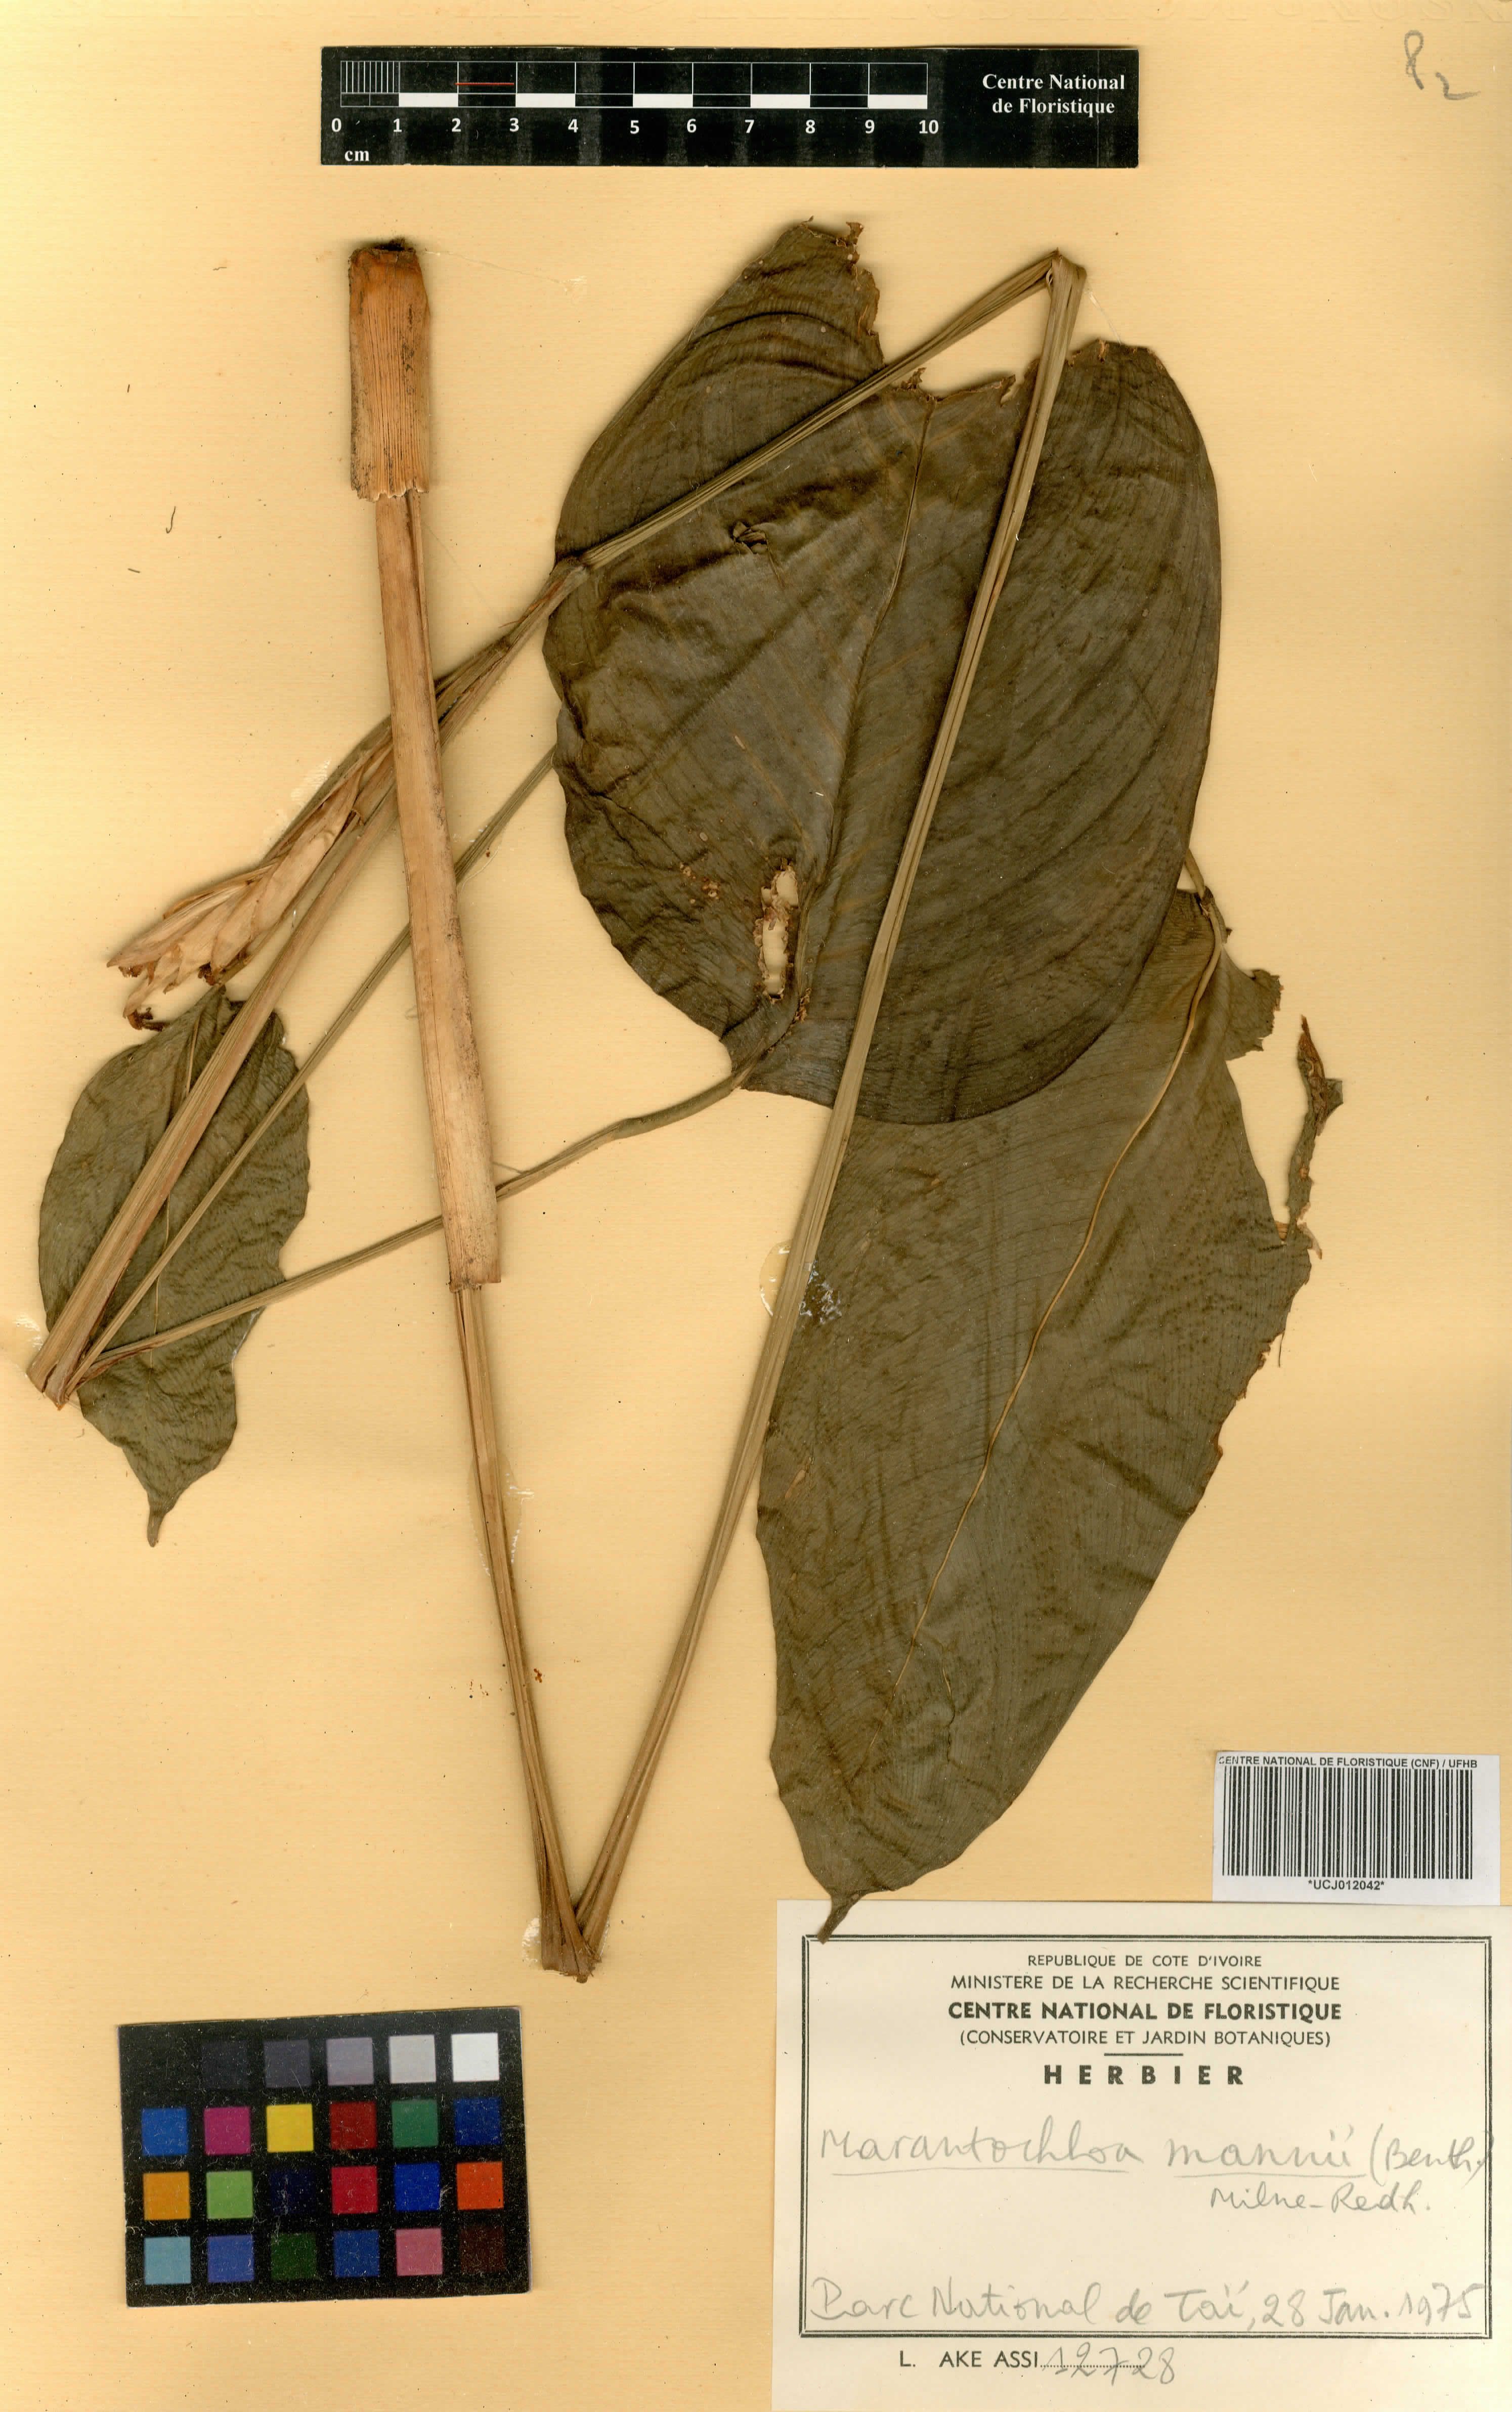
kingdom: Plantae
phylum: Tracheophyta
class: Liliopsida
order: Zingiberales
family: Marantaceae
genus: Marantochloa
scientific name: Marantochloa mannii
